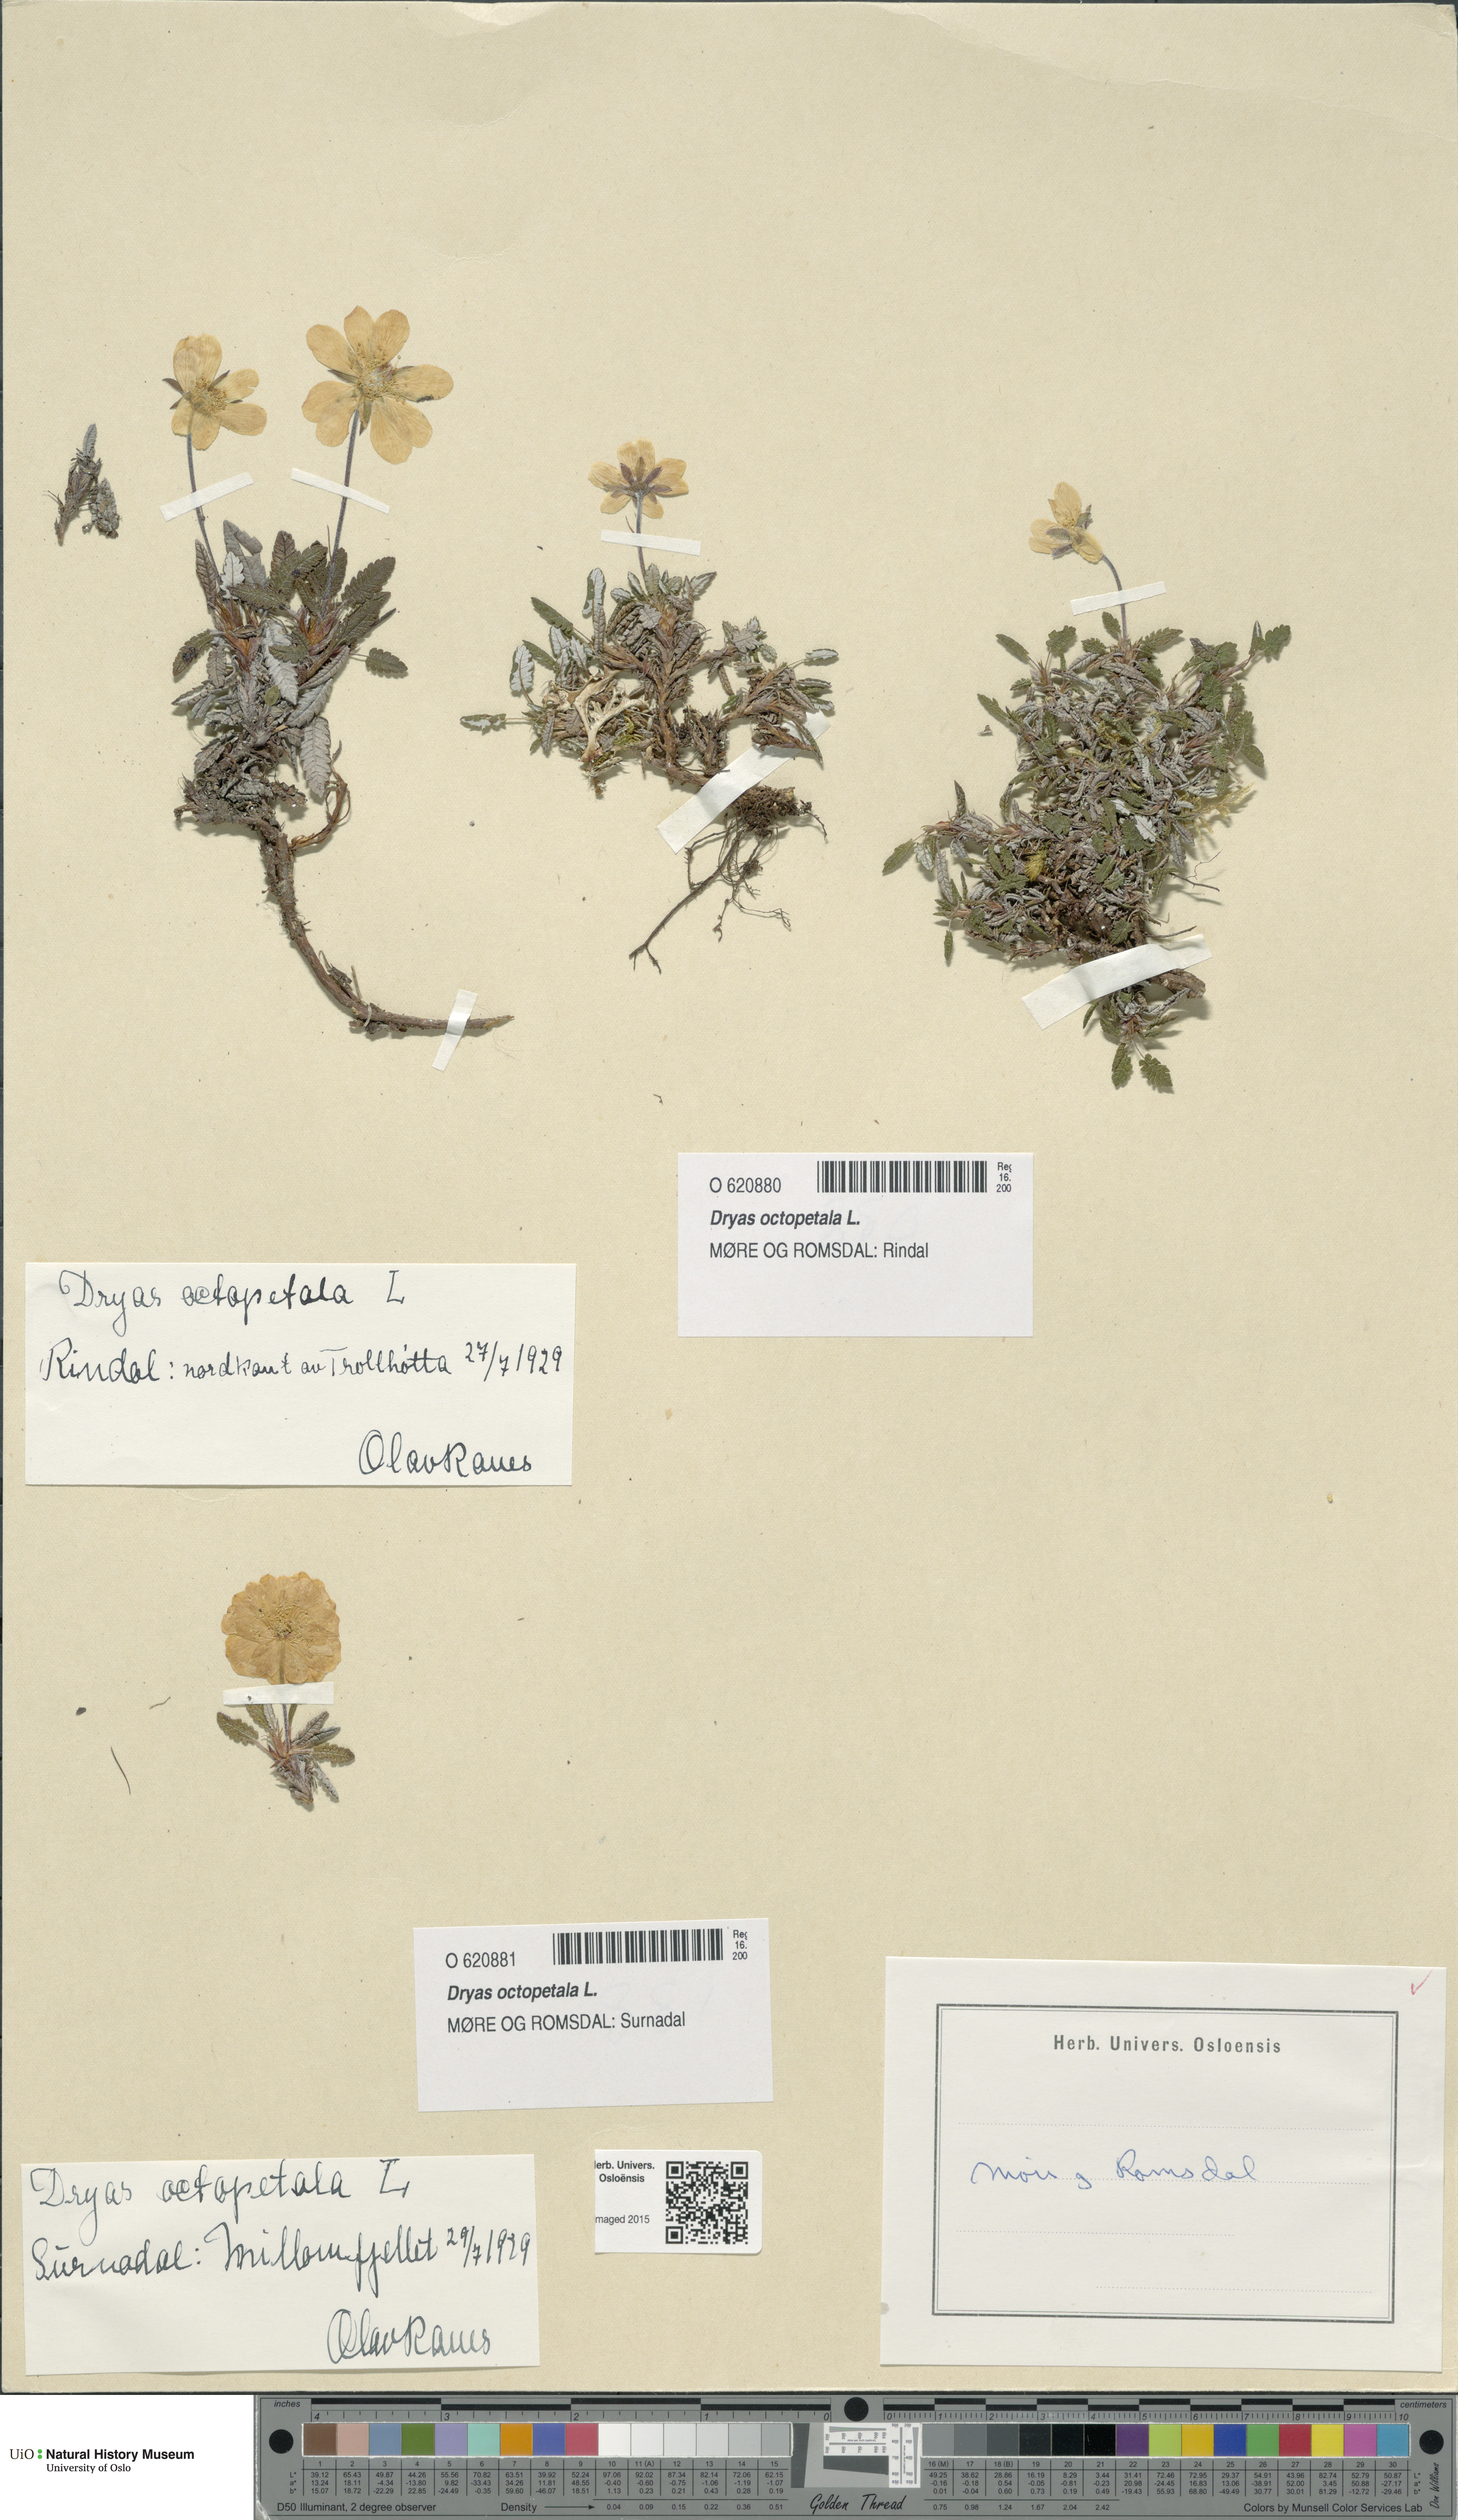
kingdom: Plantae
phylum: Tracheophyta
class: Magnoliopsida
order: Rosales
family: Rosaceae
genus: Dryas
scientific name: Dryas octopetala
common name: Eight-petal mountain-avens
